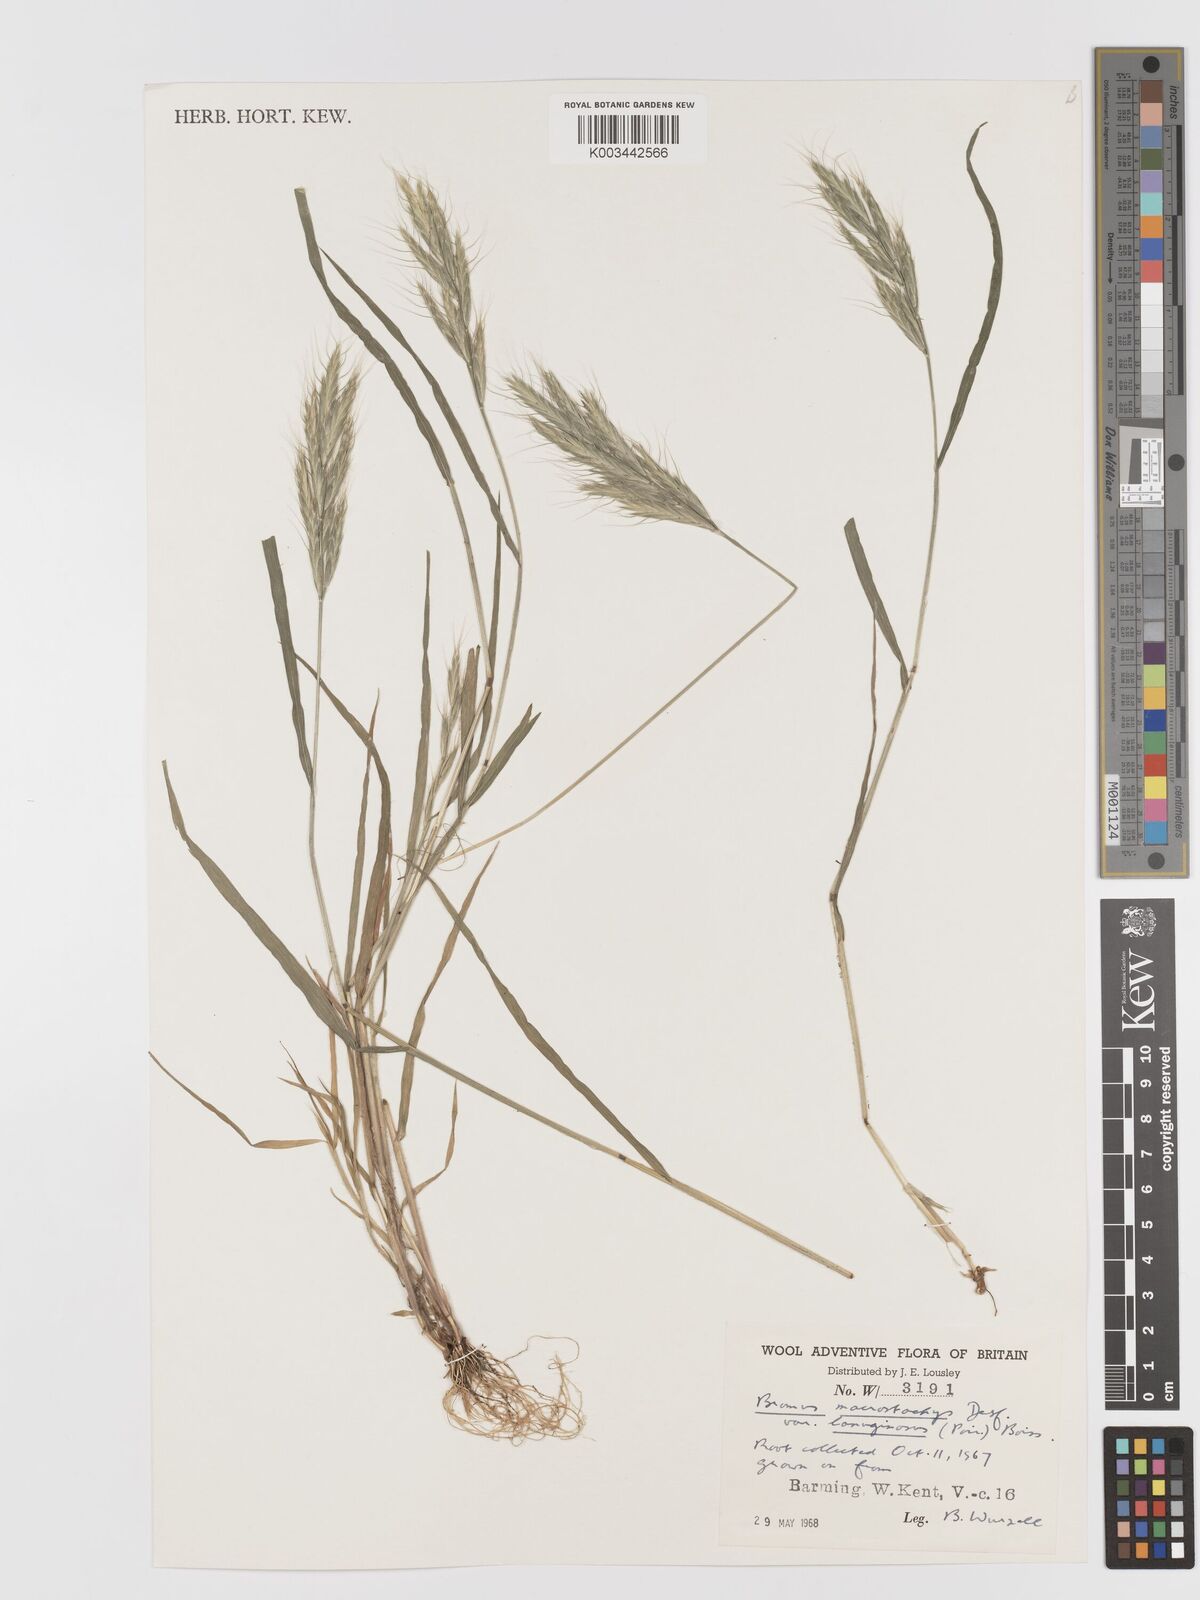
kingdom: Plantae
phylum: Tracheophyta
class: Liliopsida
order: Poales
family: Poaceae
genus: Bromus
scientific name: Bromus lanceolatus
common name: Mediterranean brome
